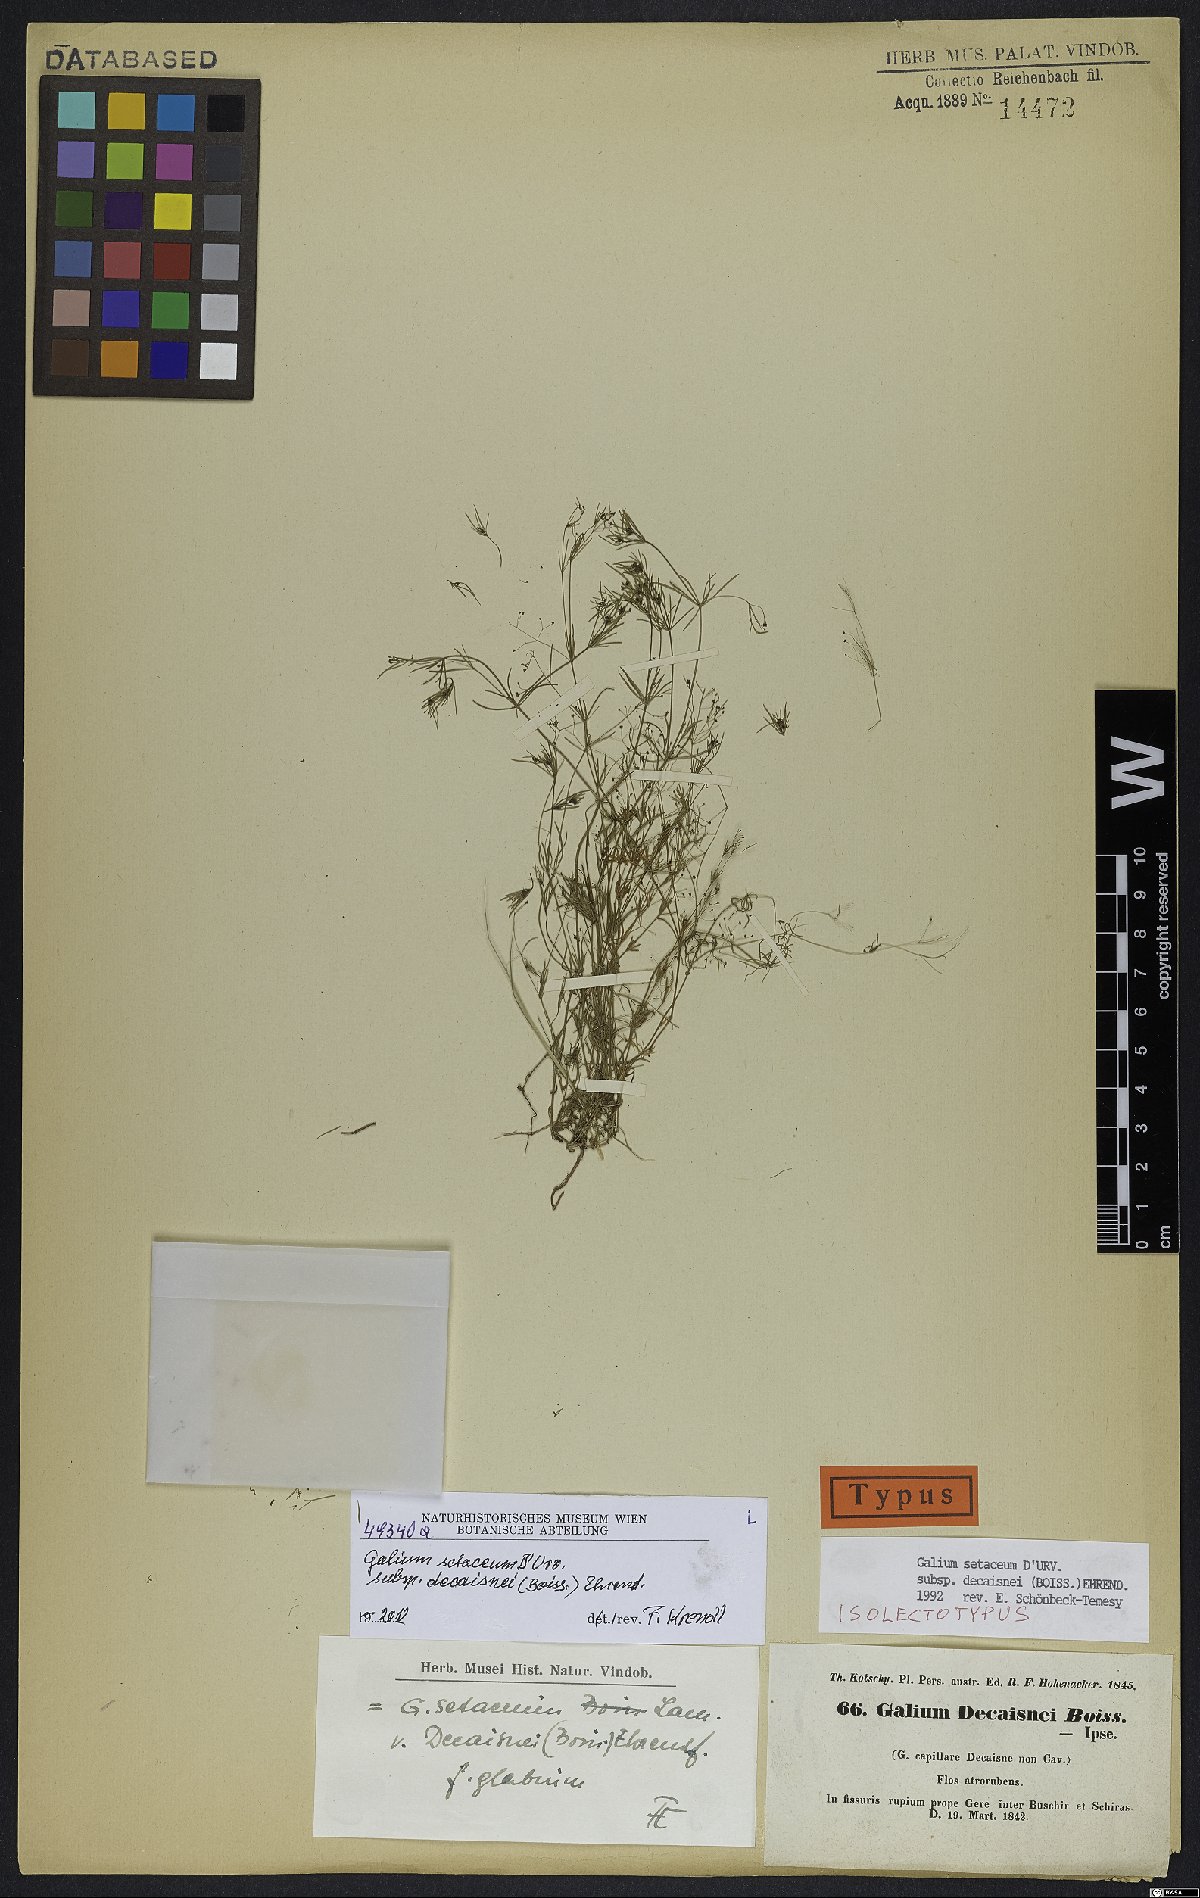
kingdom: Plantae
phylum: Tracheophyta
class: Magnoliopsida
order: Gentianales
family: Rubiaceae
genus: Galium
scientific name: Galium setaceum
